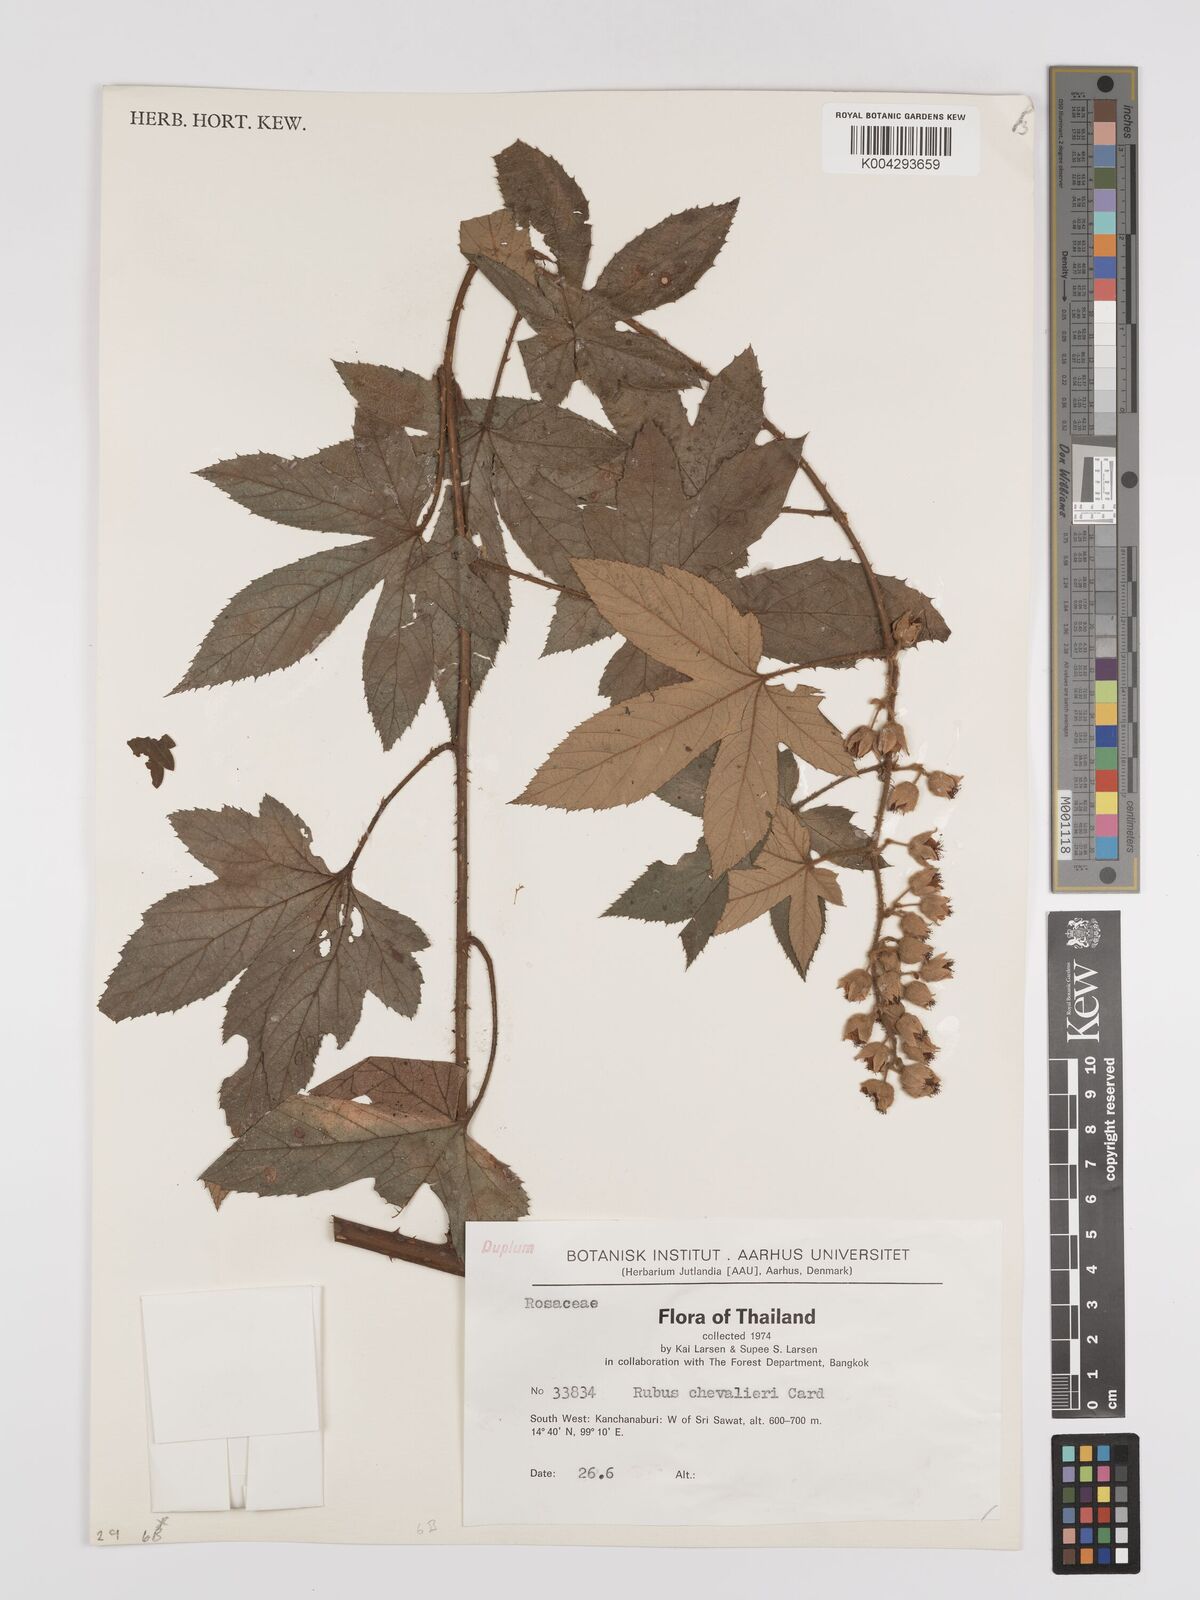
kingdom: Plantae
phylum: Tracheophyta
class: Magnoliopsida
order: Rosales
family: Rosaceae
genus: Rubus
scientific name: Rubus chevalieri
